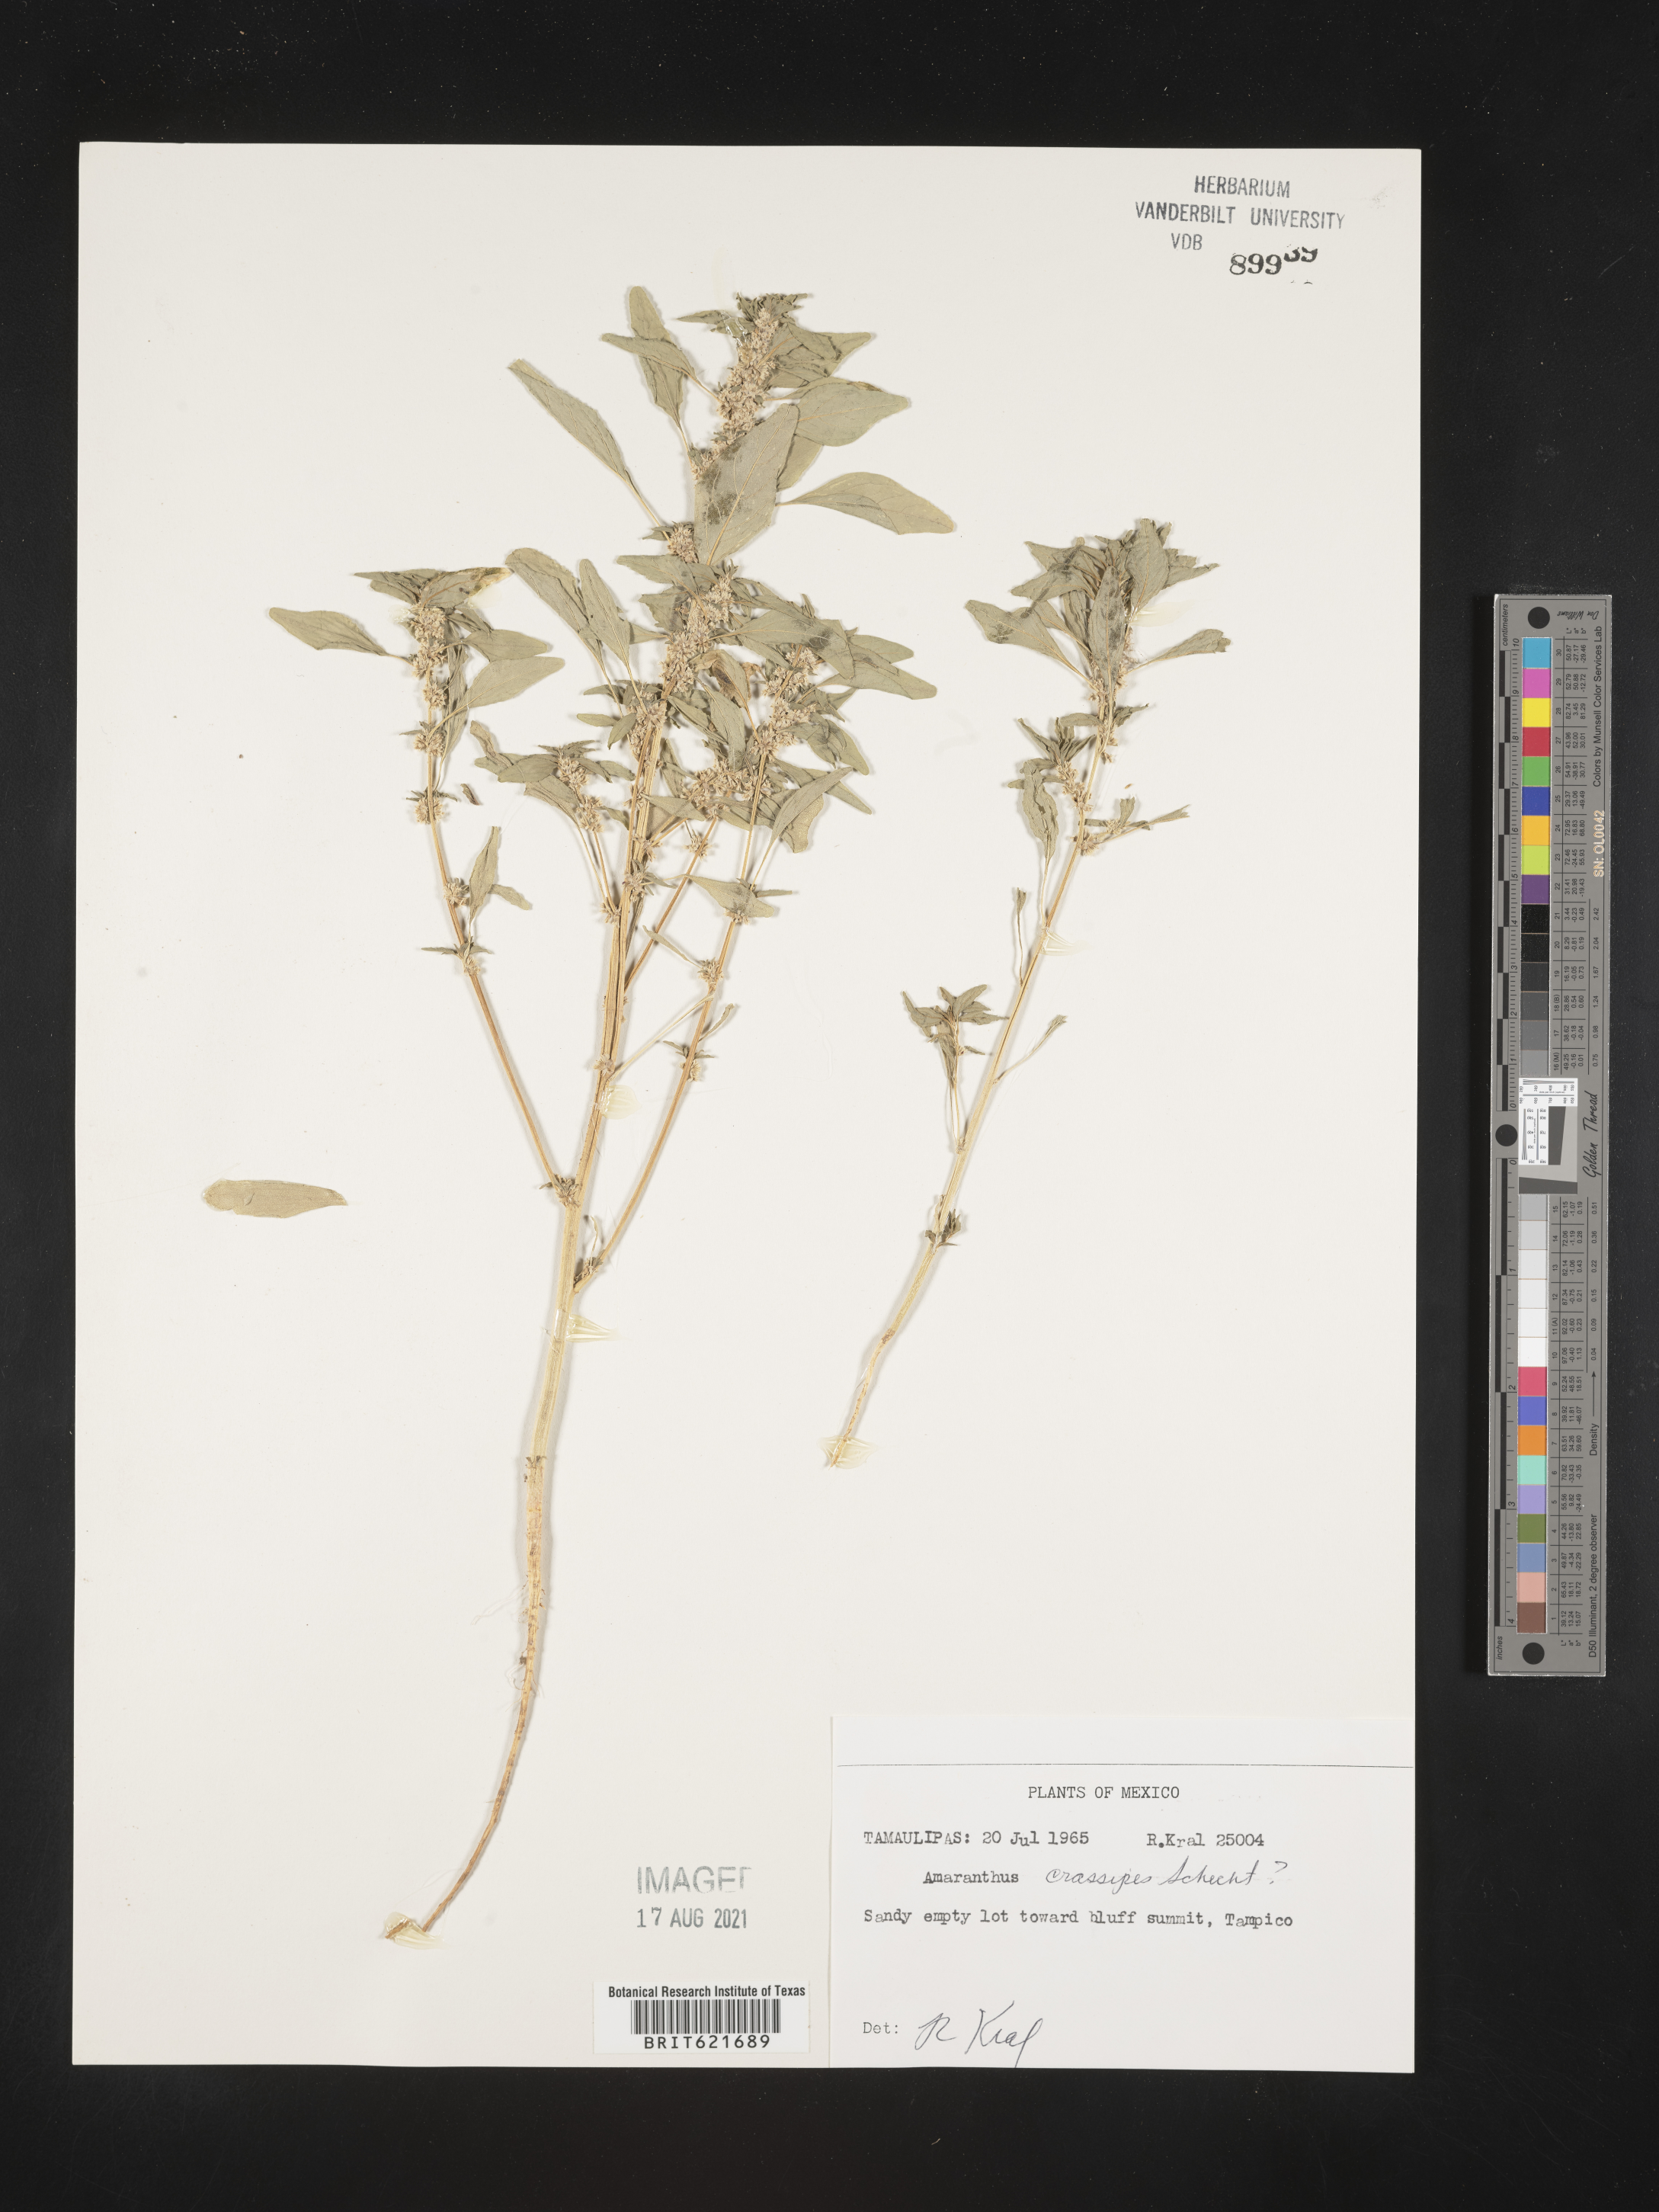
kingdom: Plantae
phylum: Tracheophyta
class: Magnoliopsida
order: Caryophyllales
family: Amaranthaceae
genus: Amaranthus
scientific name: Amaranthus
